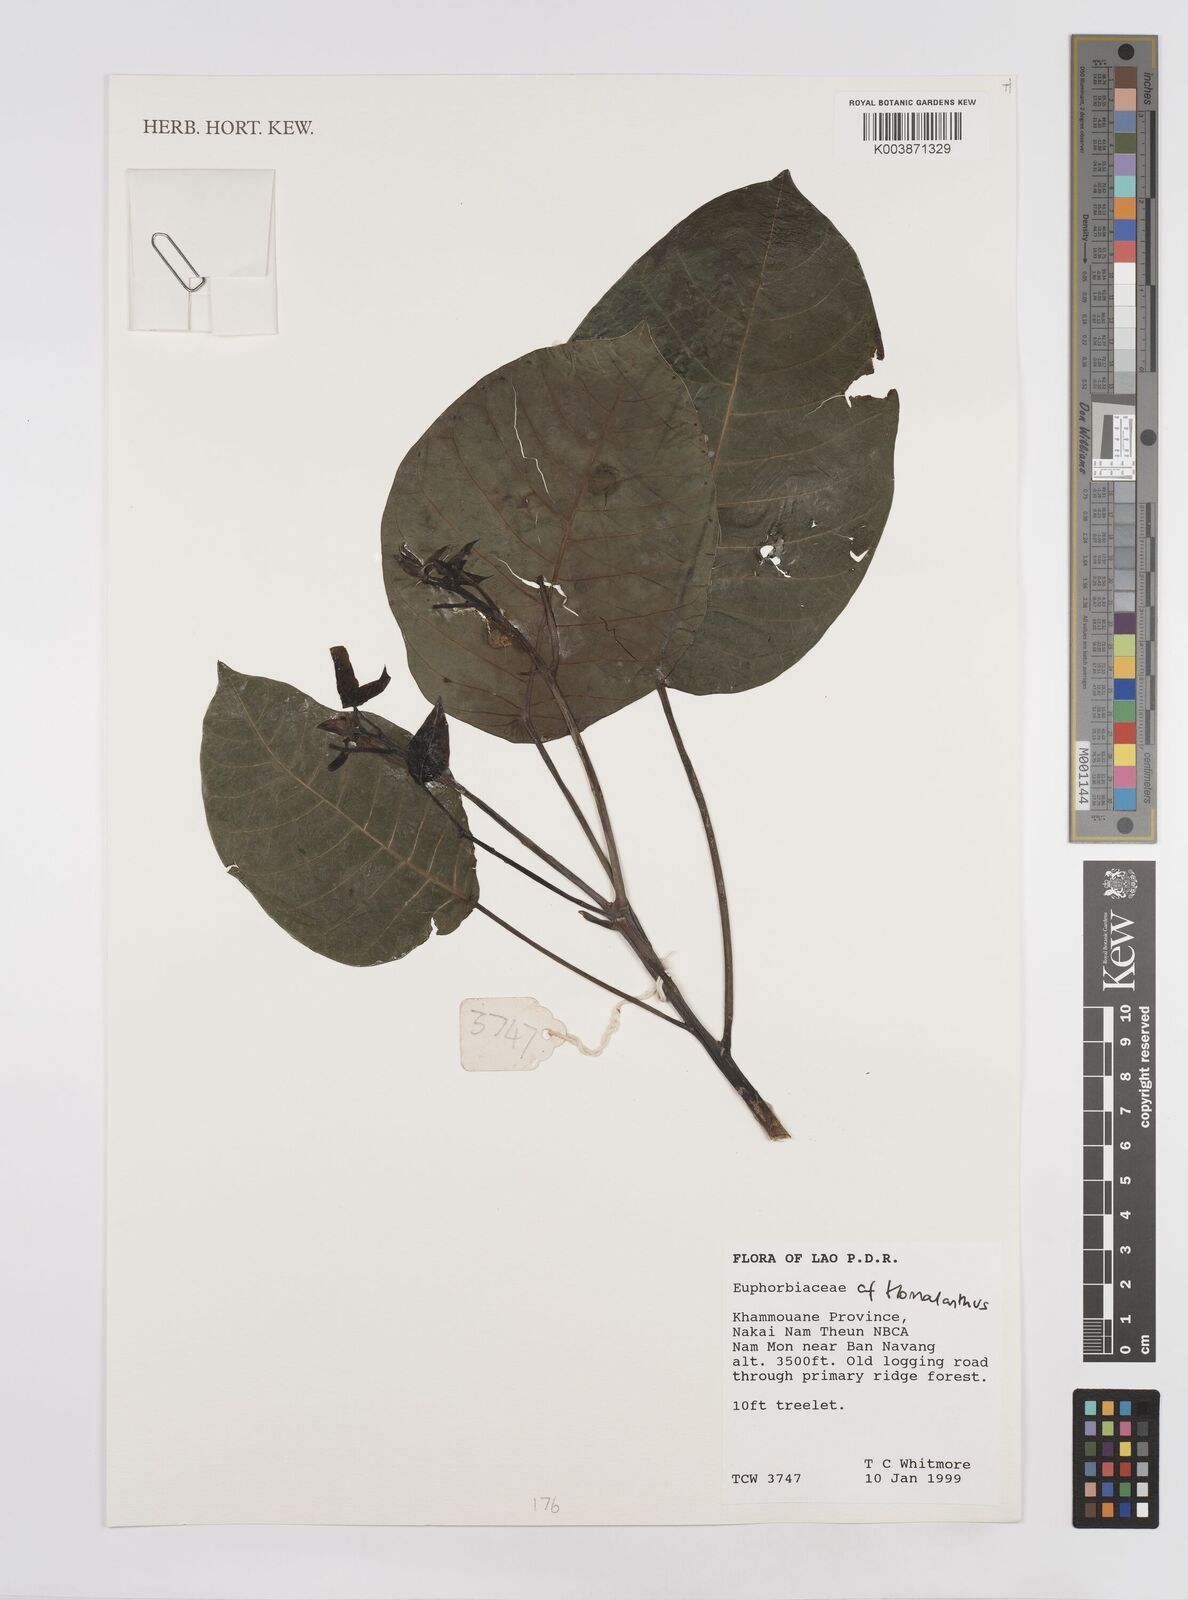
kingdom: Plantae
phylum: Tracheophyta
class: Magnoliopsida
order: Malpighiales
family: Euphorbiaceae
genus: Homalanthus
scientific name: Homalanthus
